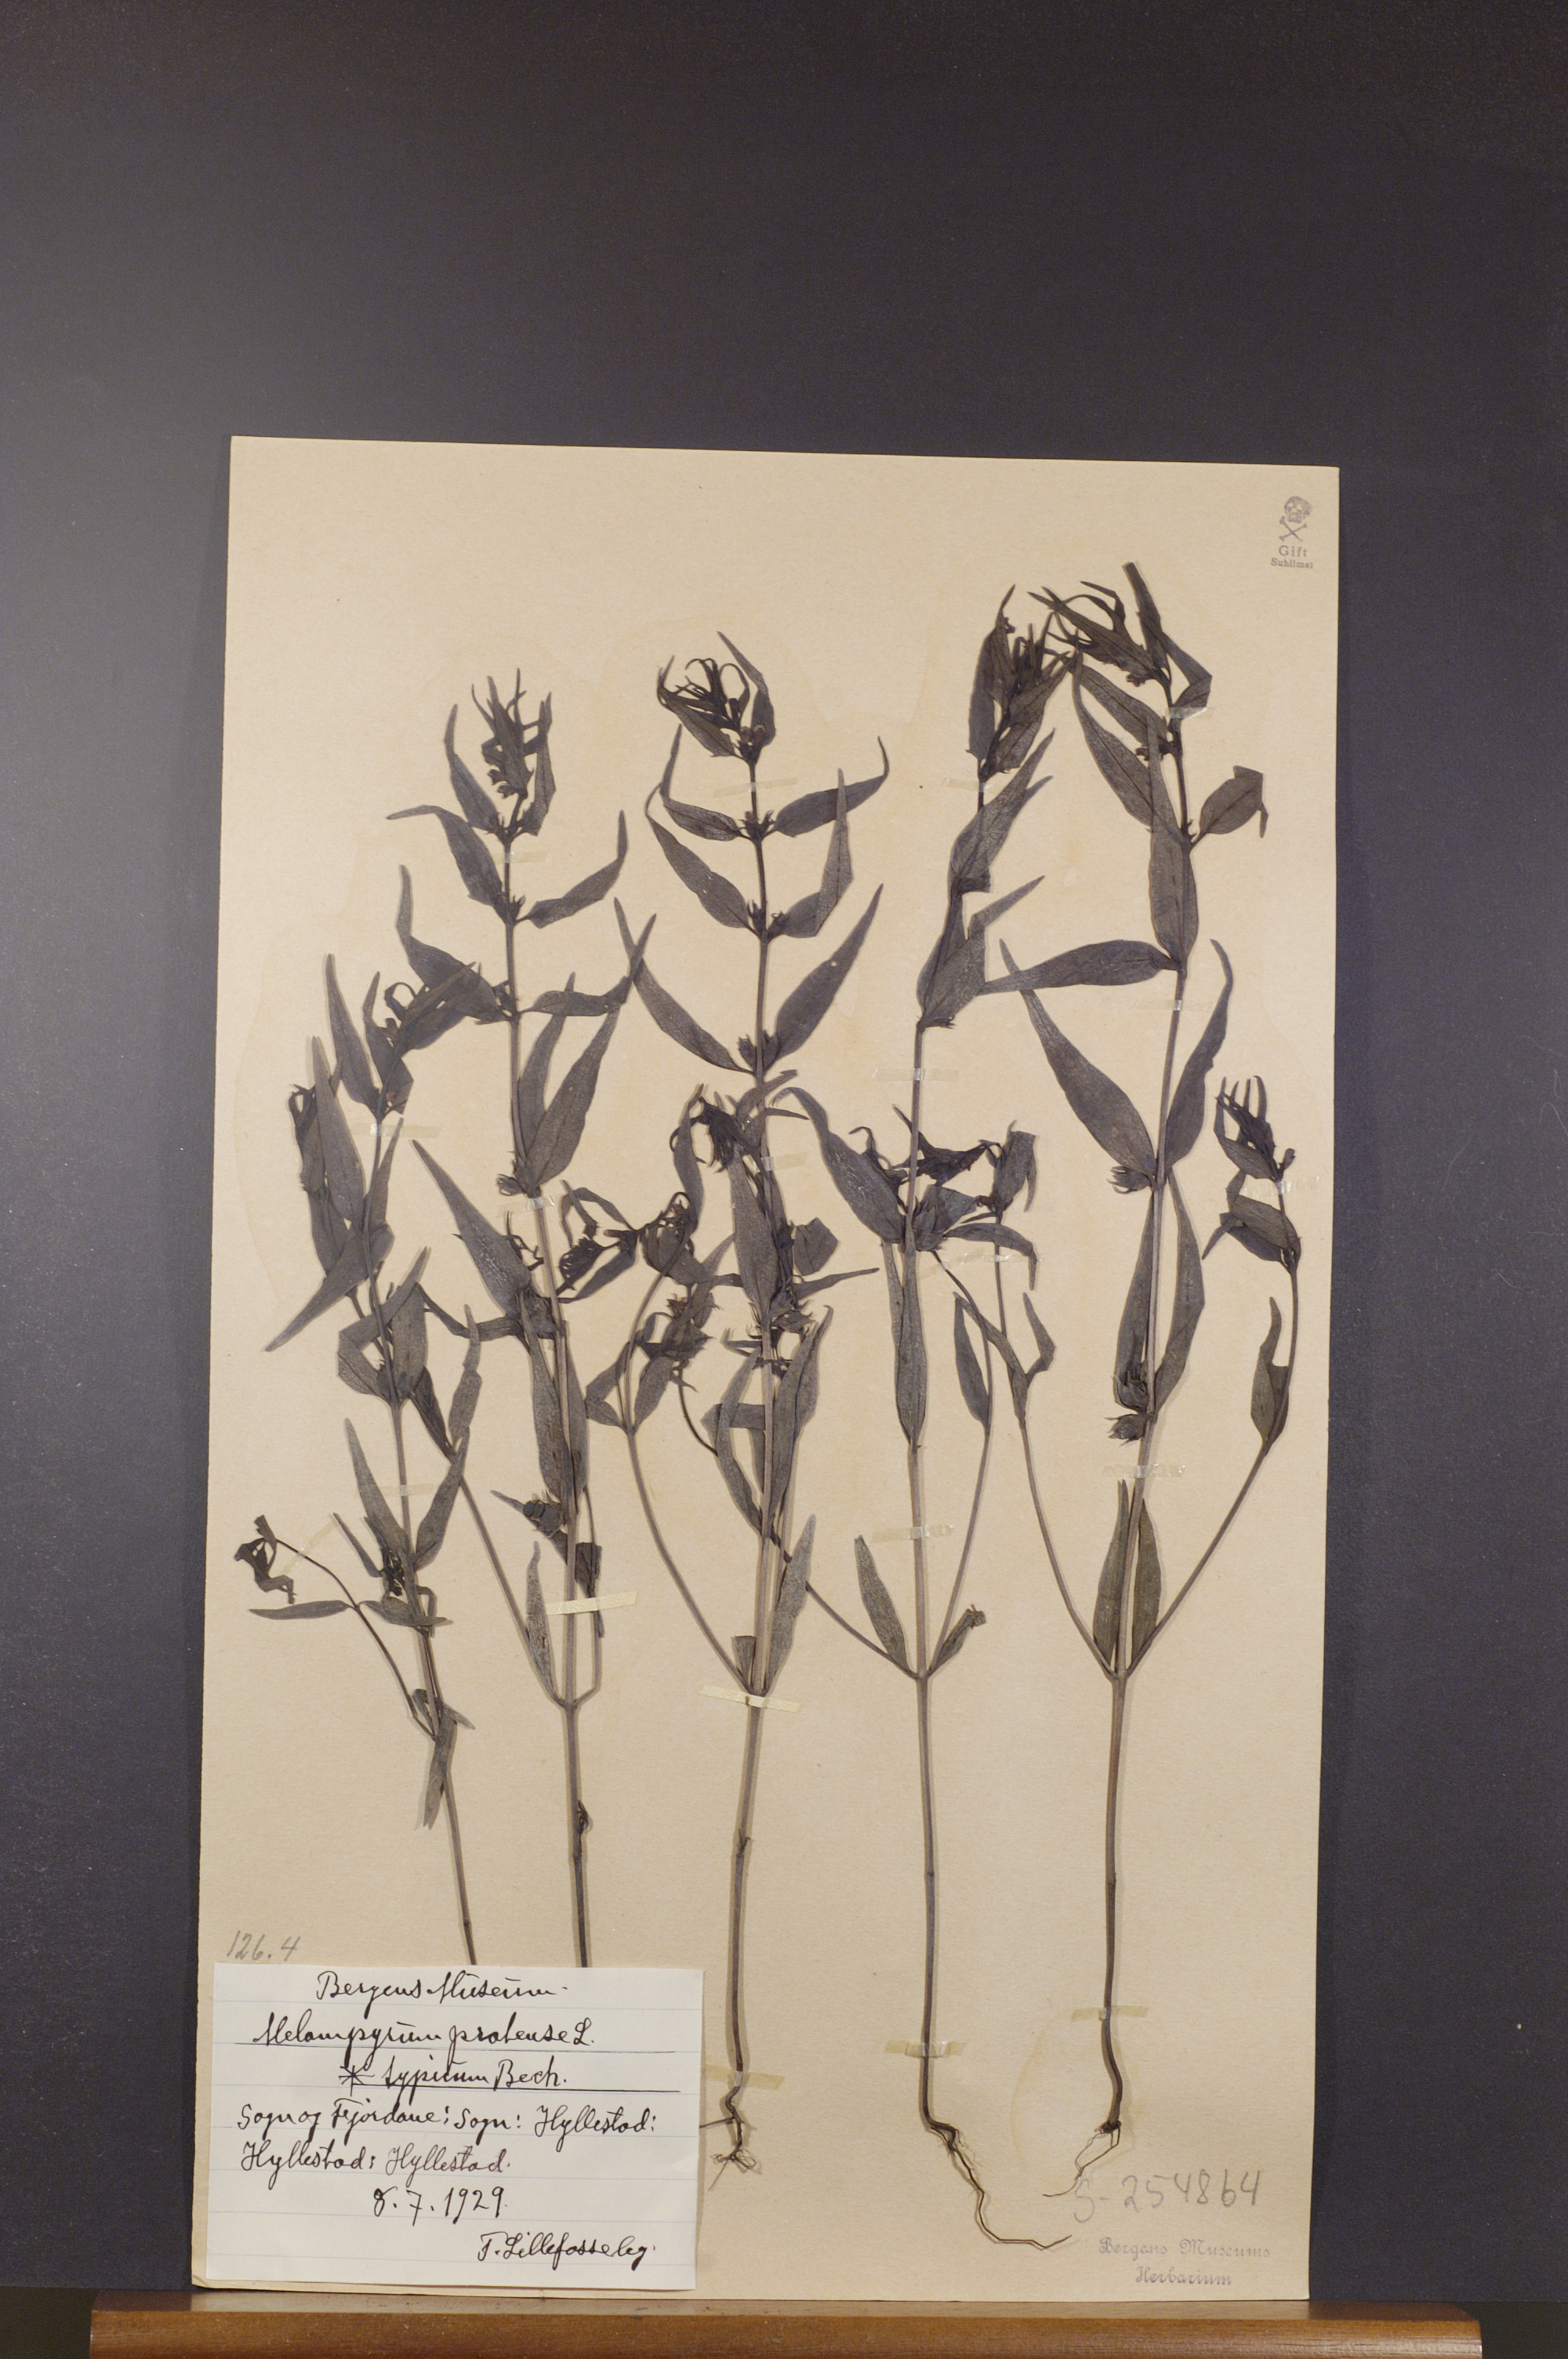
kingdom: Plantae
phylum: Tracheophyta
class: Magnoliopsida
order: Lamiales
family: Orobanchaceae
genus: Melampyrum
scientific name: Melampyrum pratense
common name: Common cow-wheat
